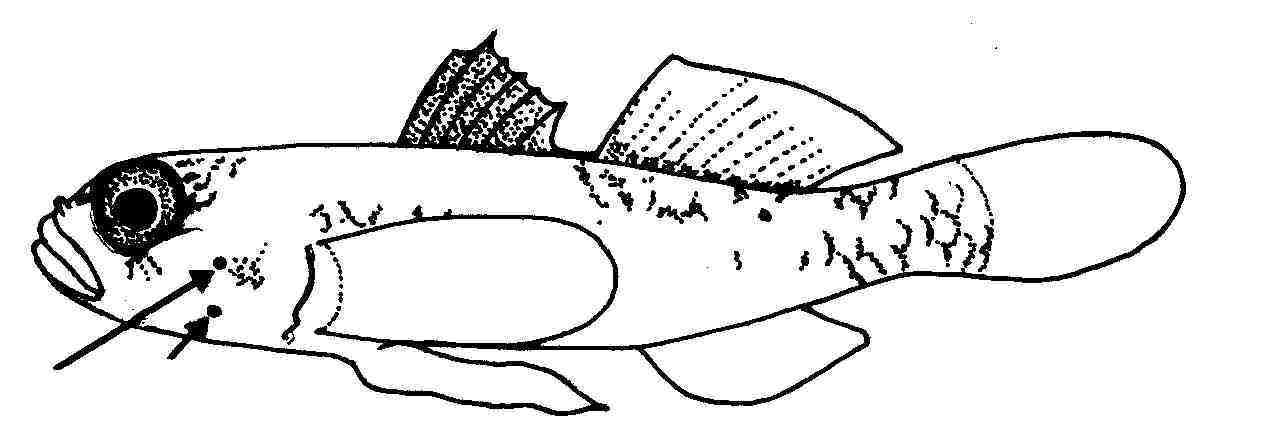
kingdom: Animalia
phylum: Chordata
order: Perciformes
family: Gobiidae
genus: Sueviota
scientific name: Sueviota lachneri
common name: Ernie's sueviota
